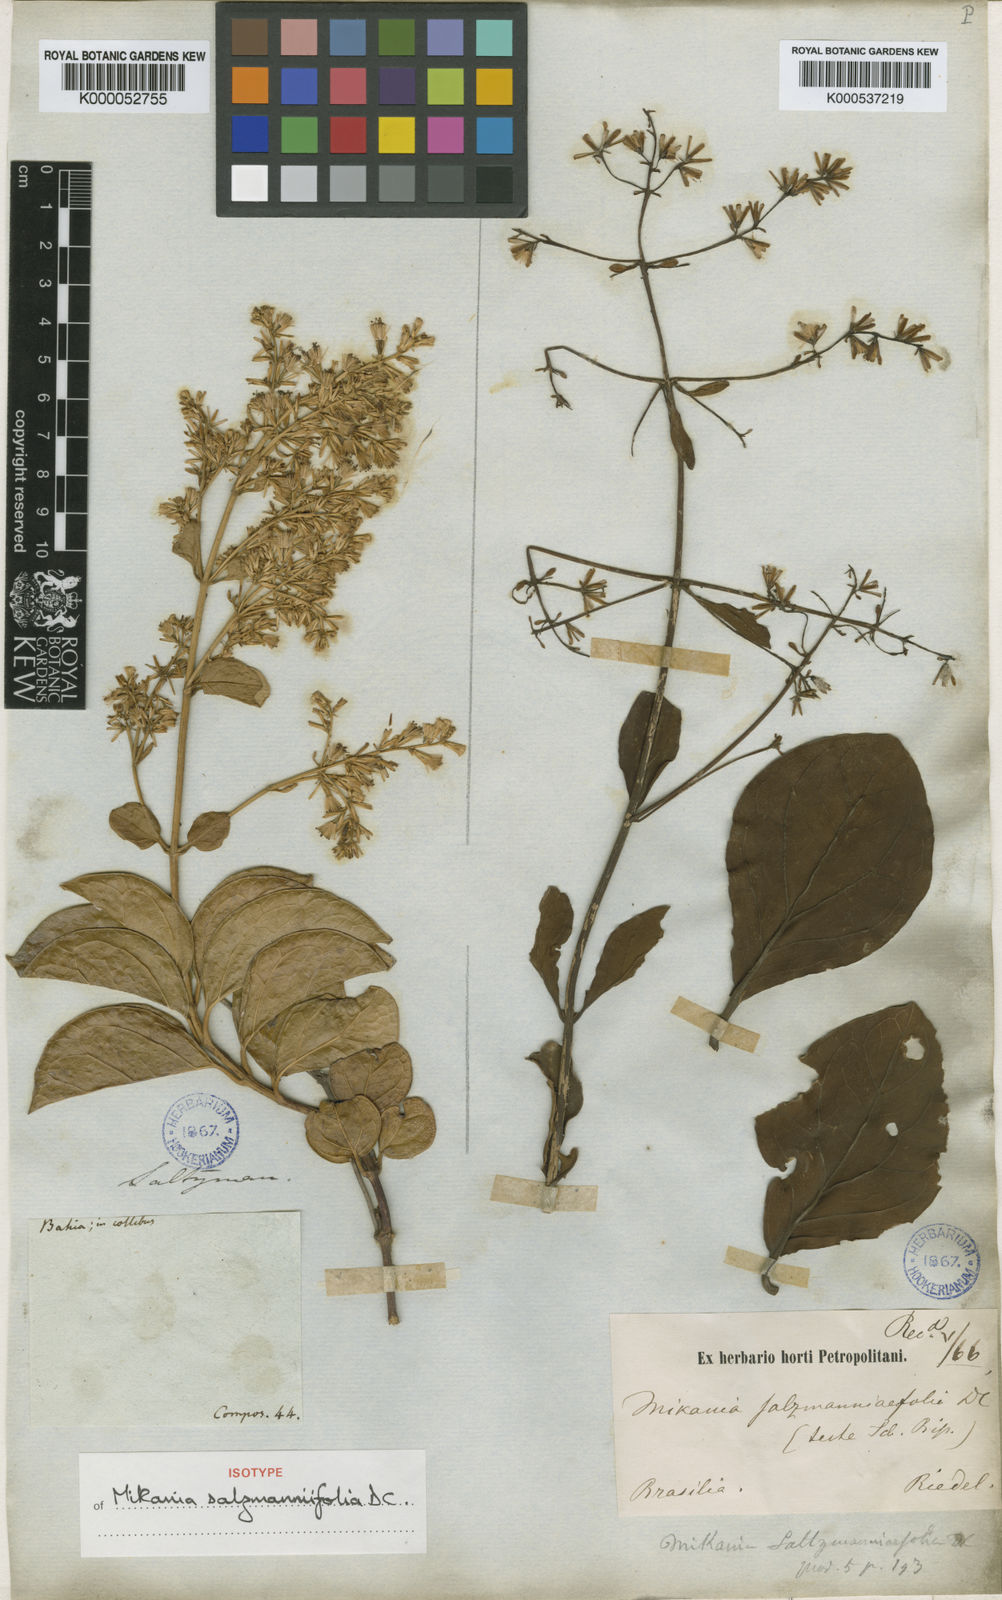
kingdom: Plantae
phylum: Tracheophyta
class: Magnoliopsida
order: Asterales
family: Asteraceae
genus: Mikania
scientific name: Mikania salzmanniifolia
